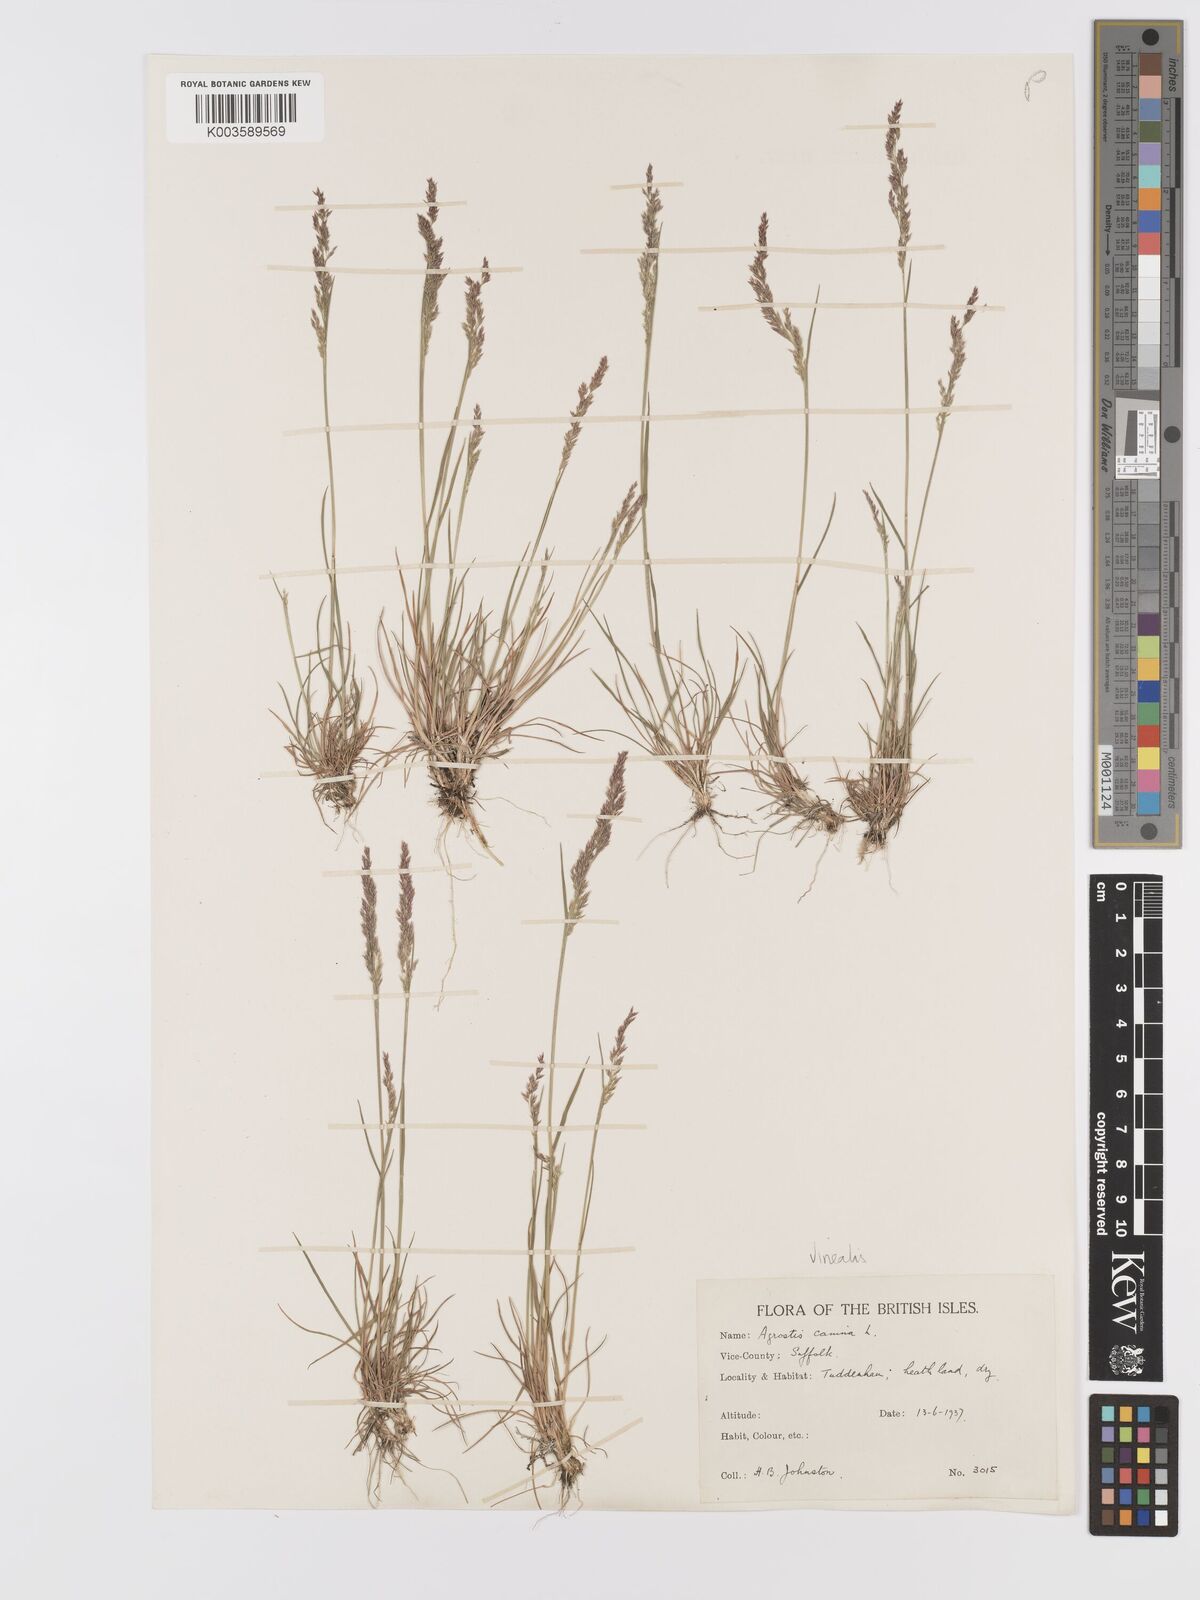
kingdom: Plantae
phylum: Tracheophyta
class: Liliopsida
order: Poales
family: Poaceae
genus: Agrostis
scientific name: Agrostis
